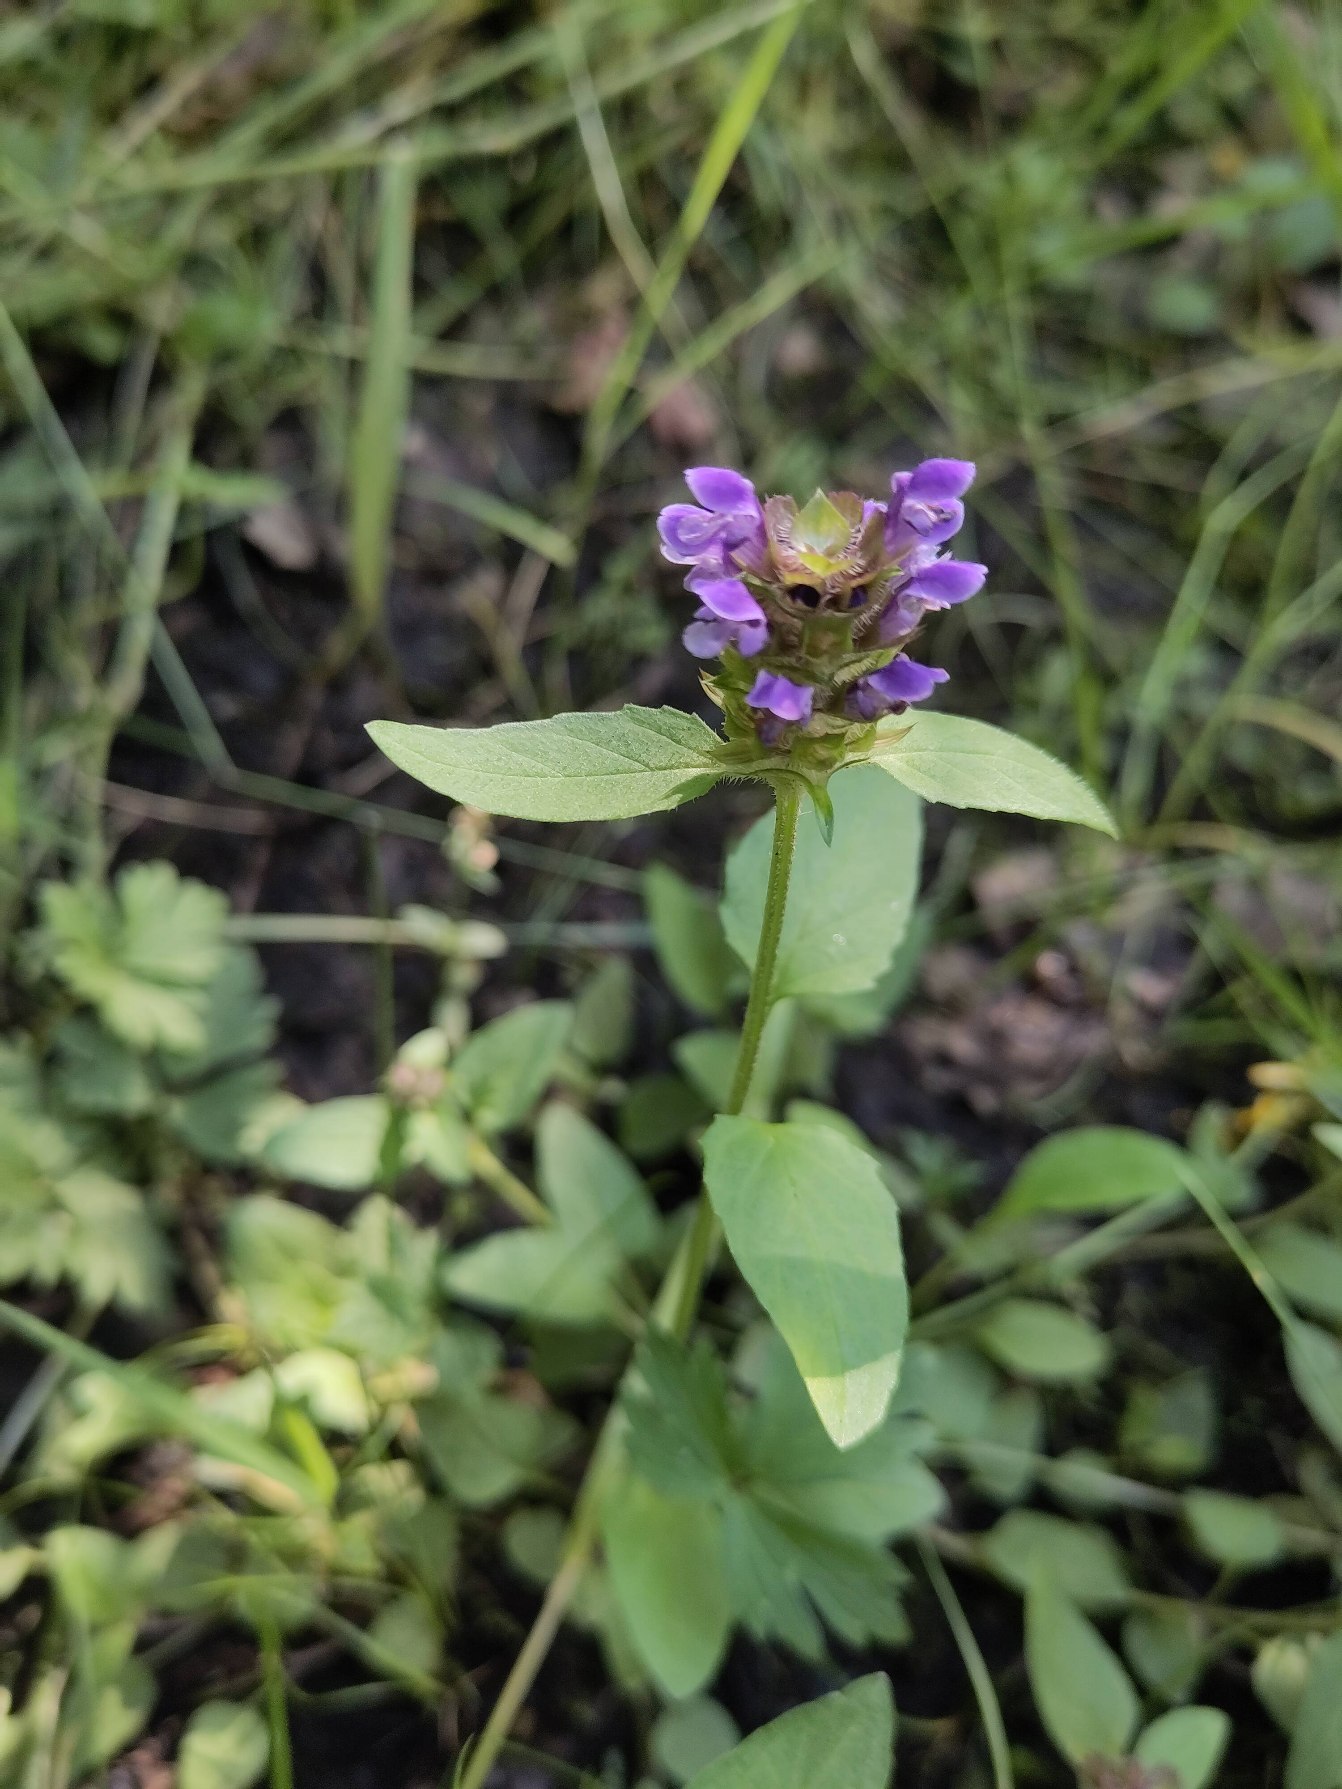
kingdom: Plantae
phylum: Tracheophyta
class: Magnoliopsida
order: Lamiales
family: Lamiaceae
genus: Prunella
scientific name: Prunella vulgaris
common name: Almindelig brunelle
